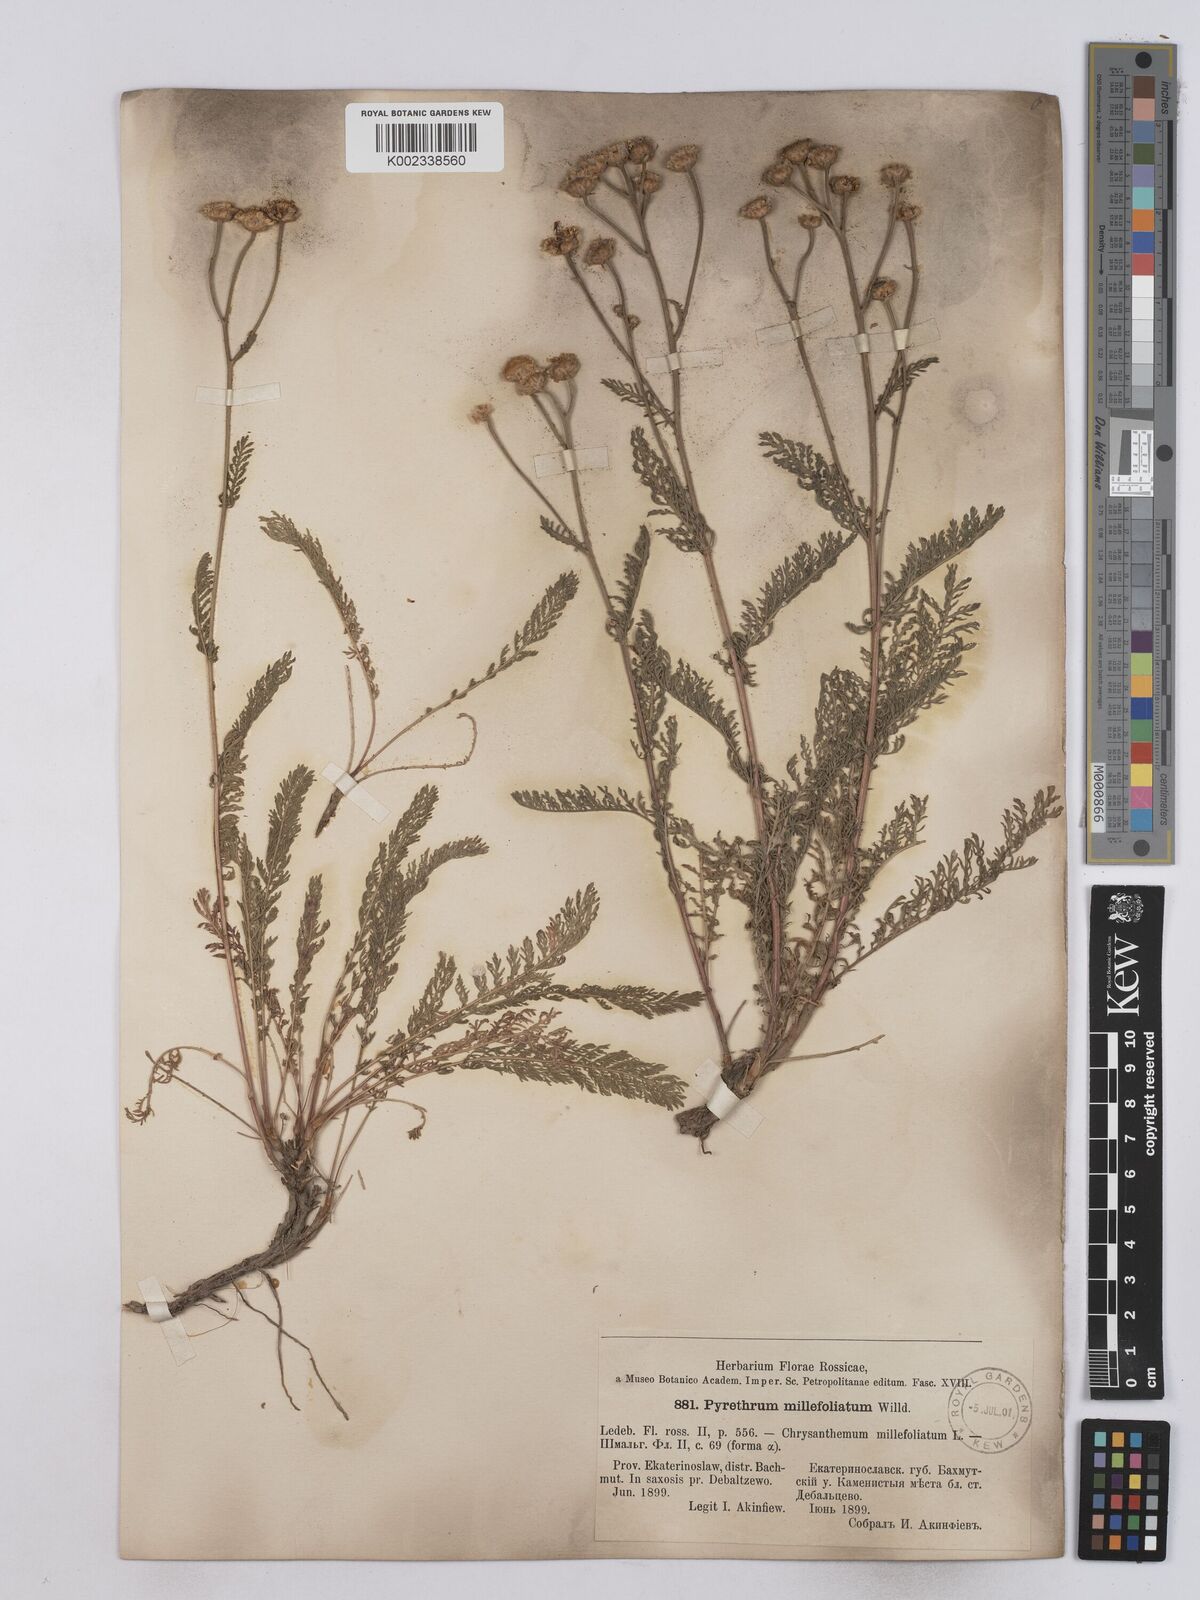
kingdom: Plantae
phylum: Tracheophyta
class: Magnoliopsida
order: Asterales
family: Asteraceae
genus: Tanacetum
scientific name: Tanacetum millefolium
